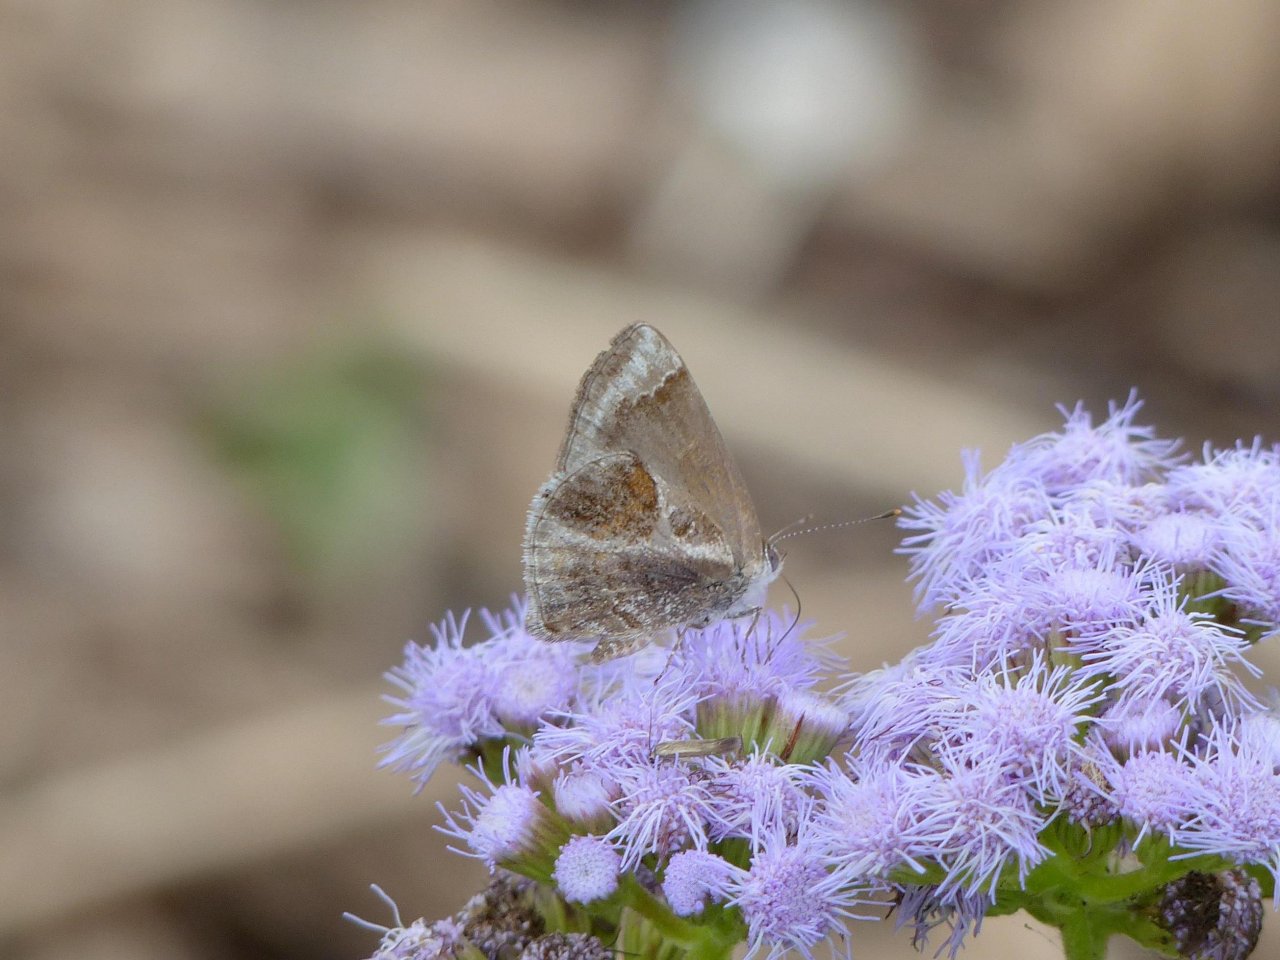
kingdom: Animalia
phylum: Arthropoda
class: Insecta
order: Lepidoptera
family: Lycaenidae
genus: Strymon
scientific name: Strymon bazochii
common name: Lantana Scrub-Hairstreak
